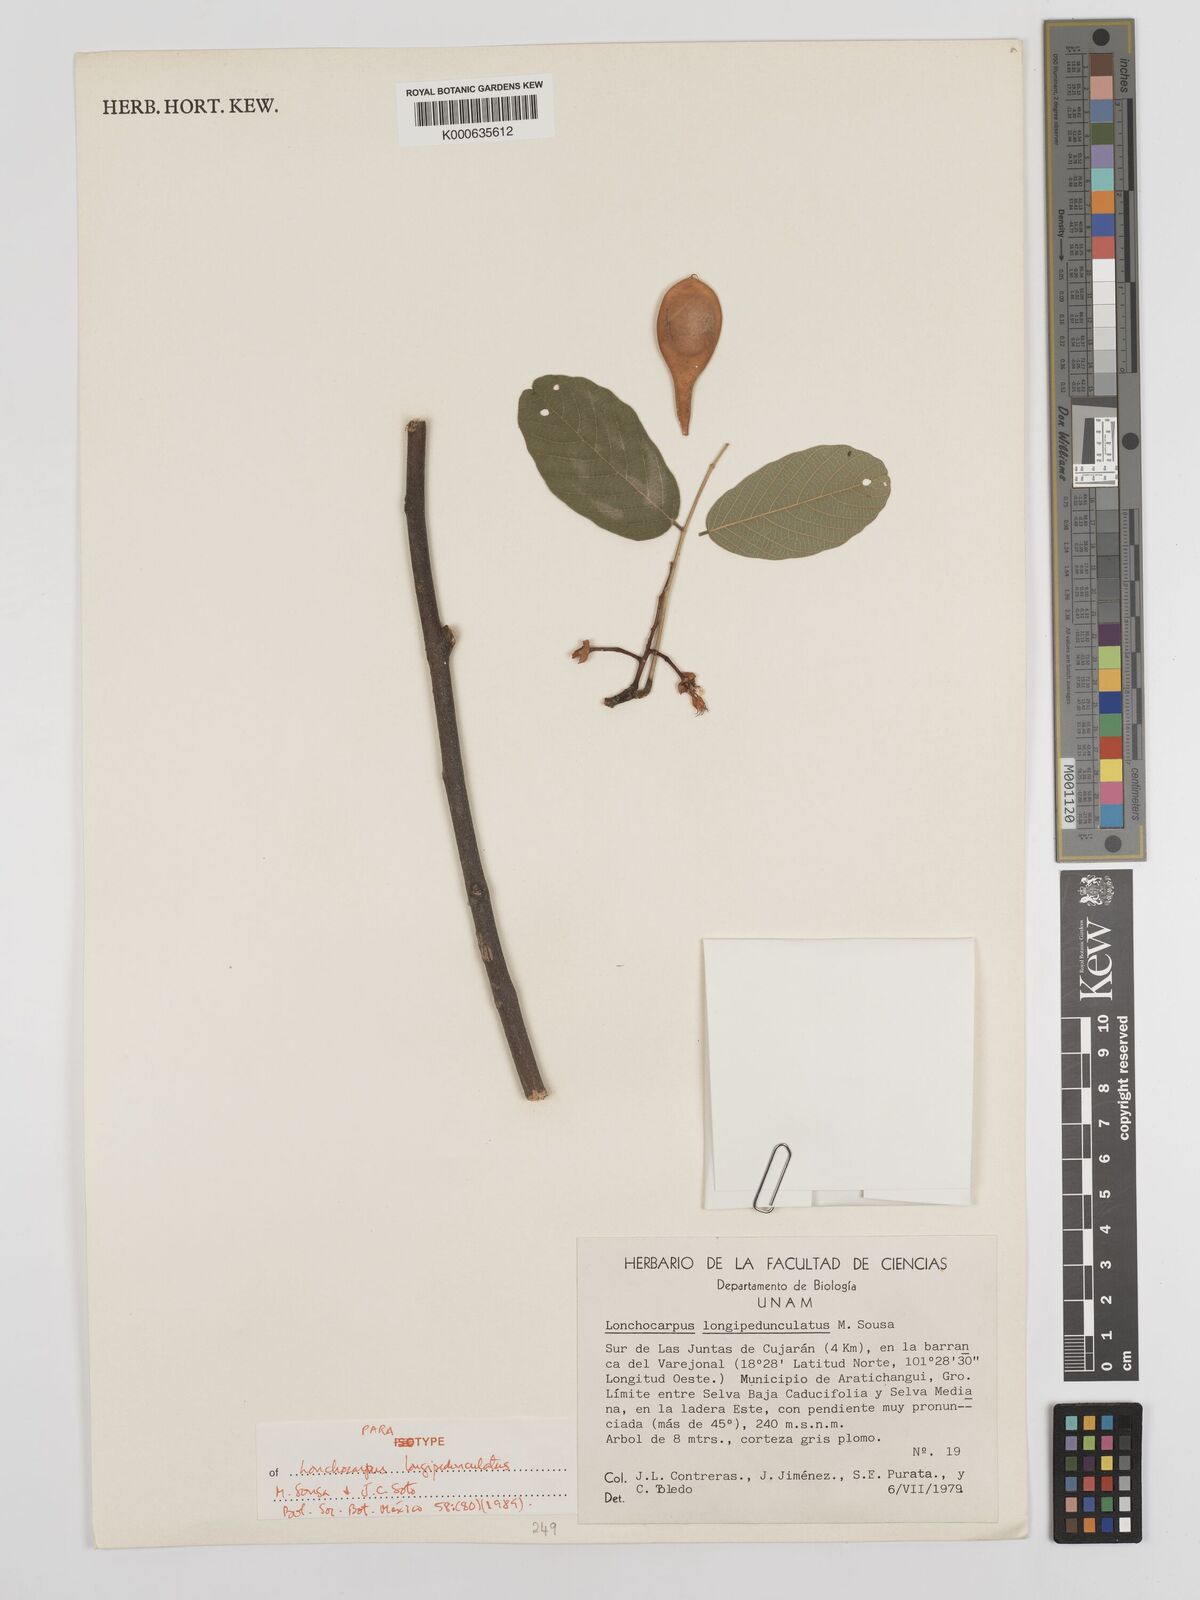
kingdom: Plantae
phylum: Tracheophyta
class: Magnoliopsida
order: Fabales
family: Fabaceae
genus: Lonchocarpus
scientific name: Lonchocarpus longipedunculatus
